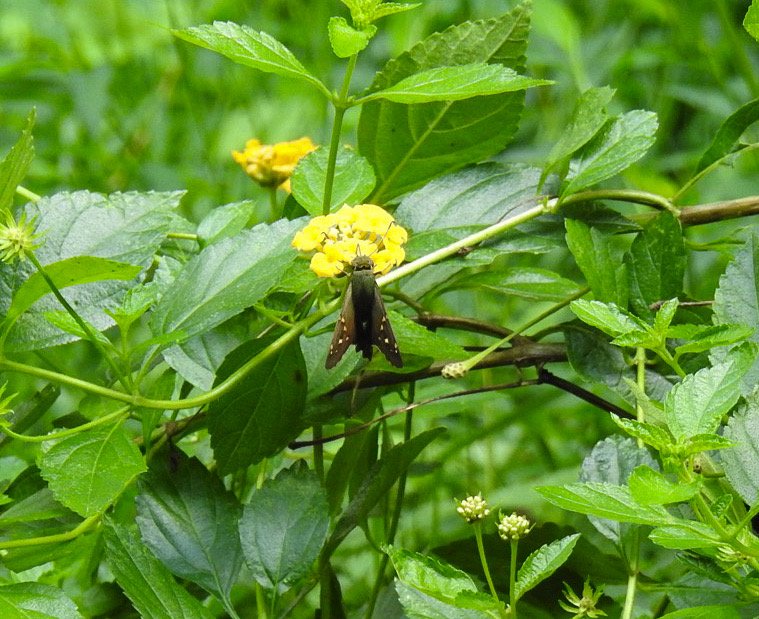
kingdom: Animalia
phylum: Arthropoda
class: Insecta
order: Lepidoptera
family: Hesperiidae
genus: Urbanus
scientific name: Urbanus proteus
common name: Long-tailed Skipper
